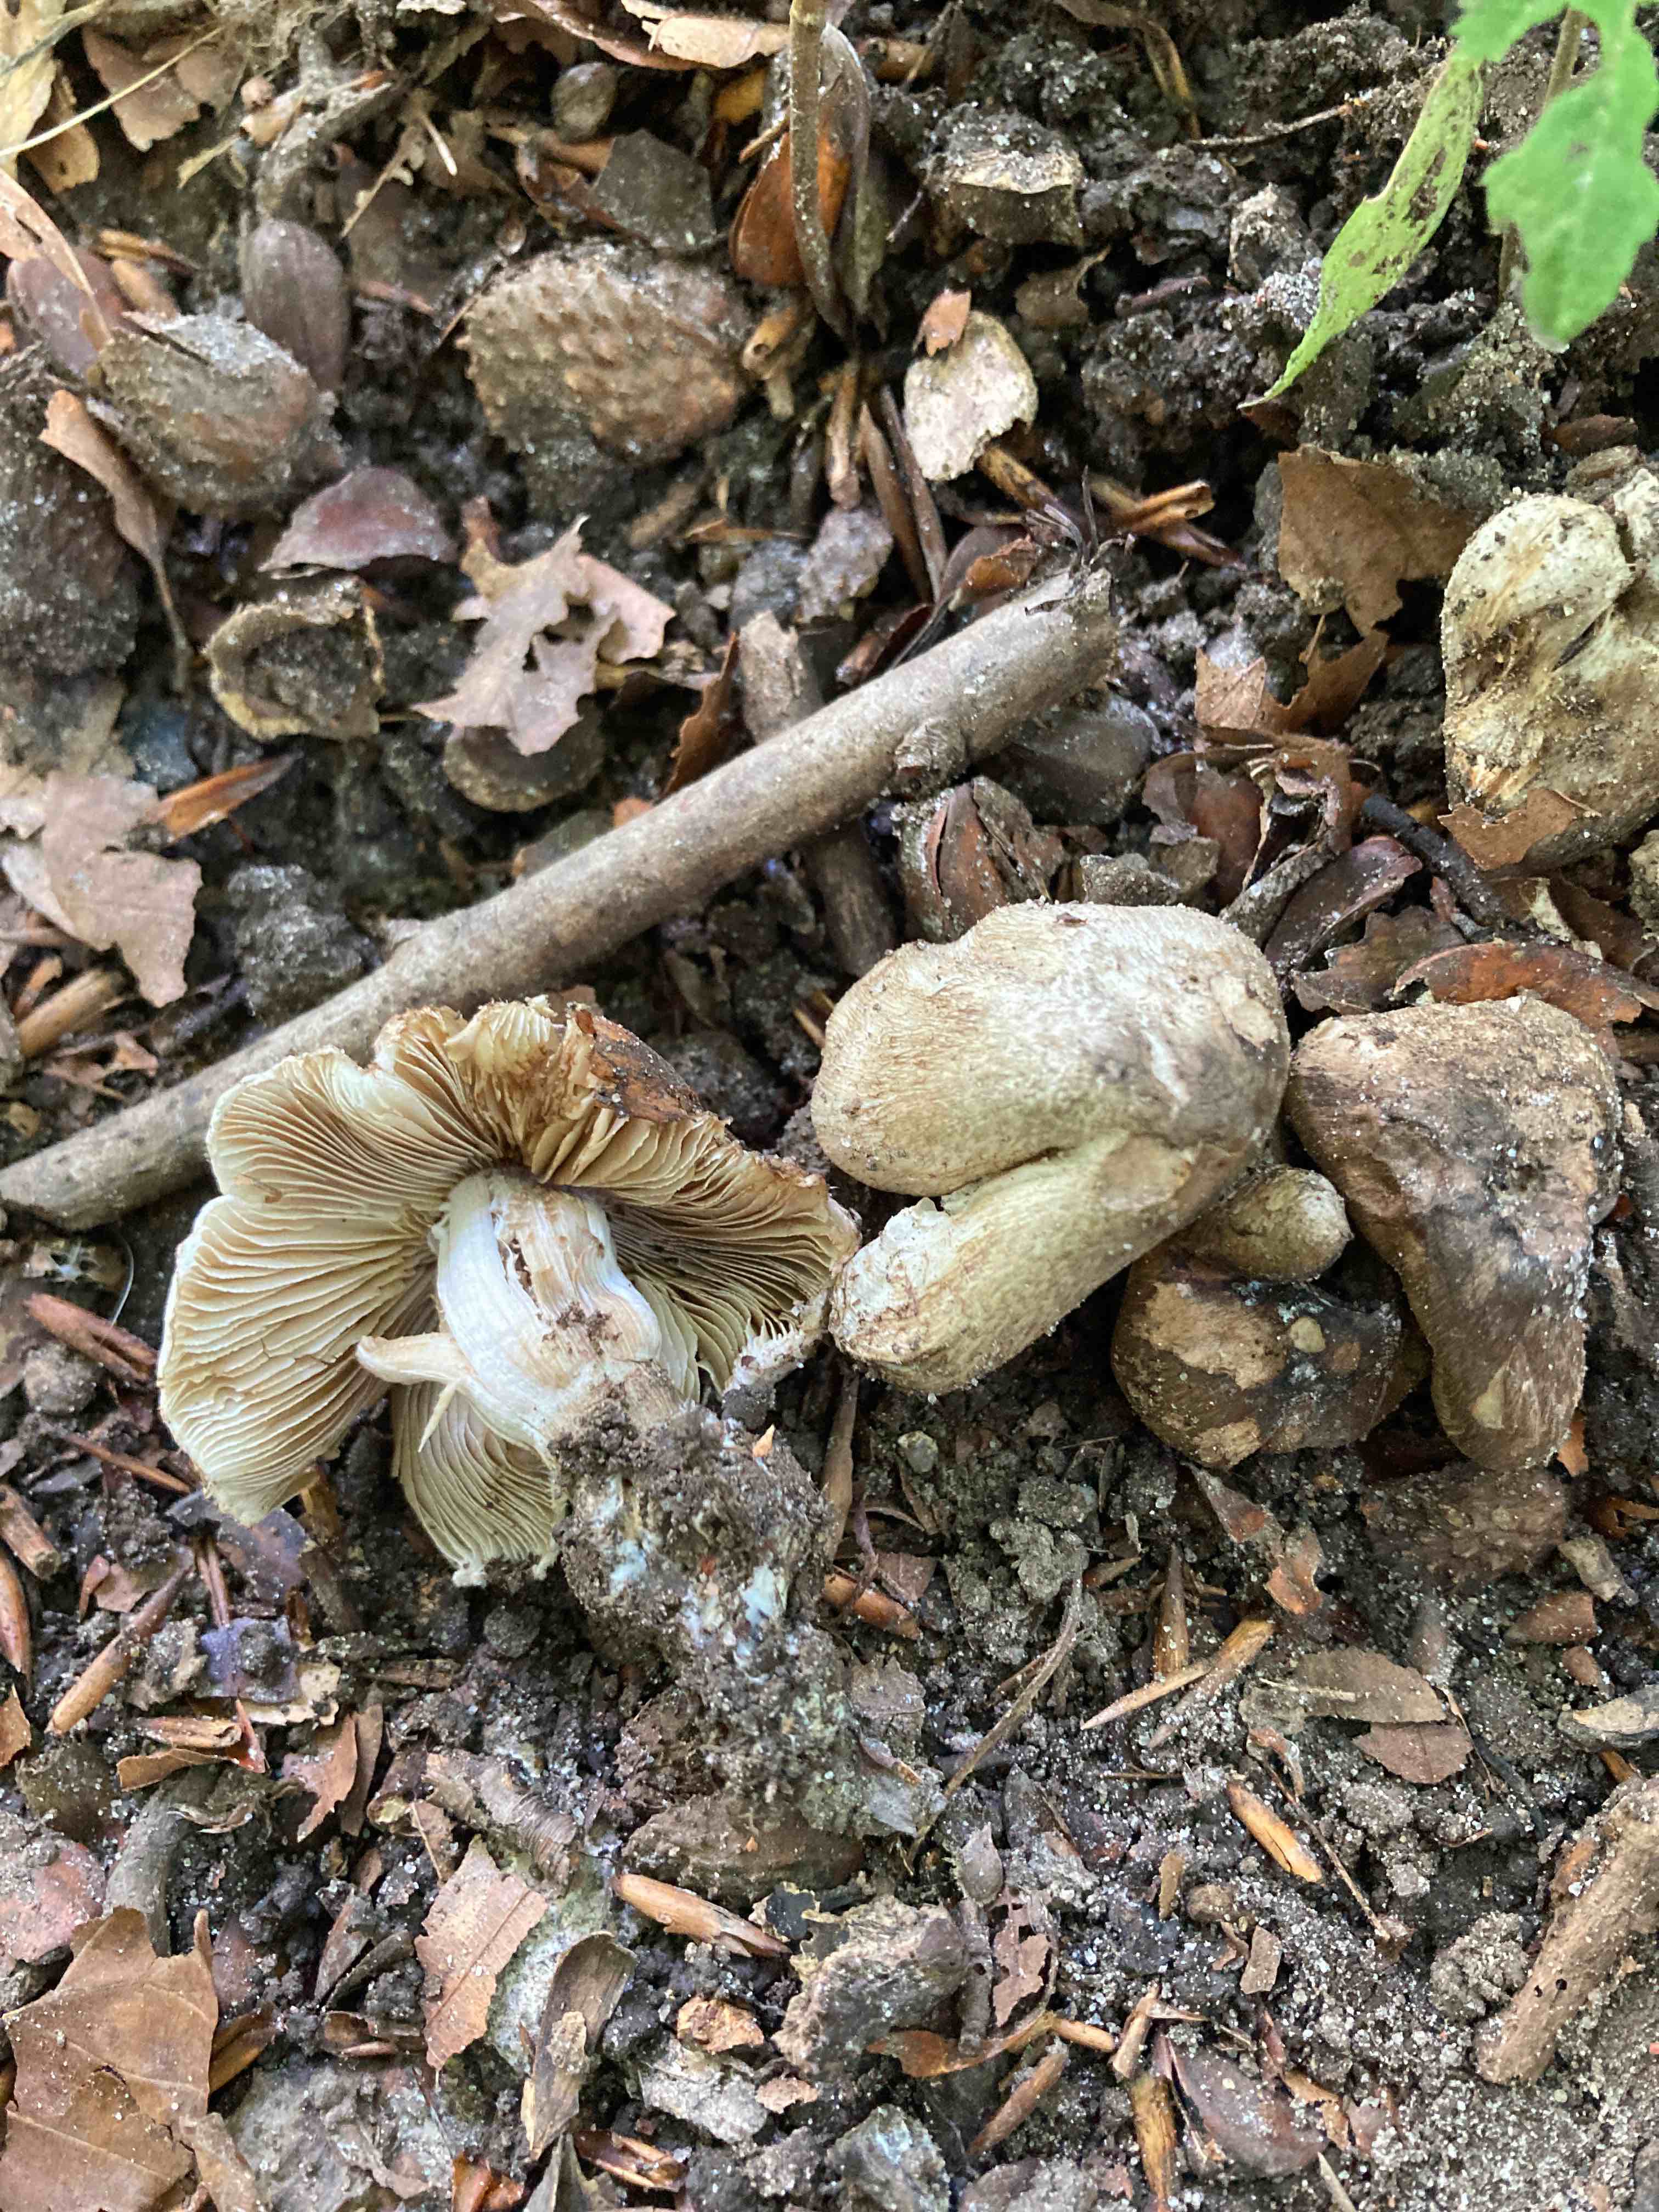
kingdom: Fungi
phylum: Basidiomycota
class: Agaricomycetes
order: Agaricales
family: Inocybaceae
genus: Inocybe
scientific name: Inocybe corydalina
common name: grønpuklet trævlhat
